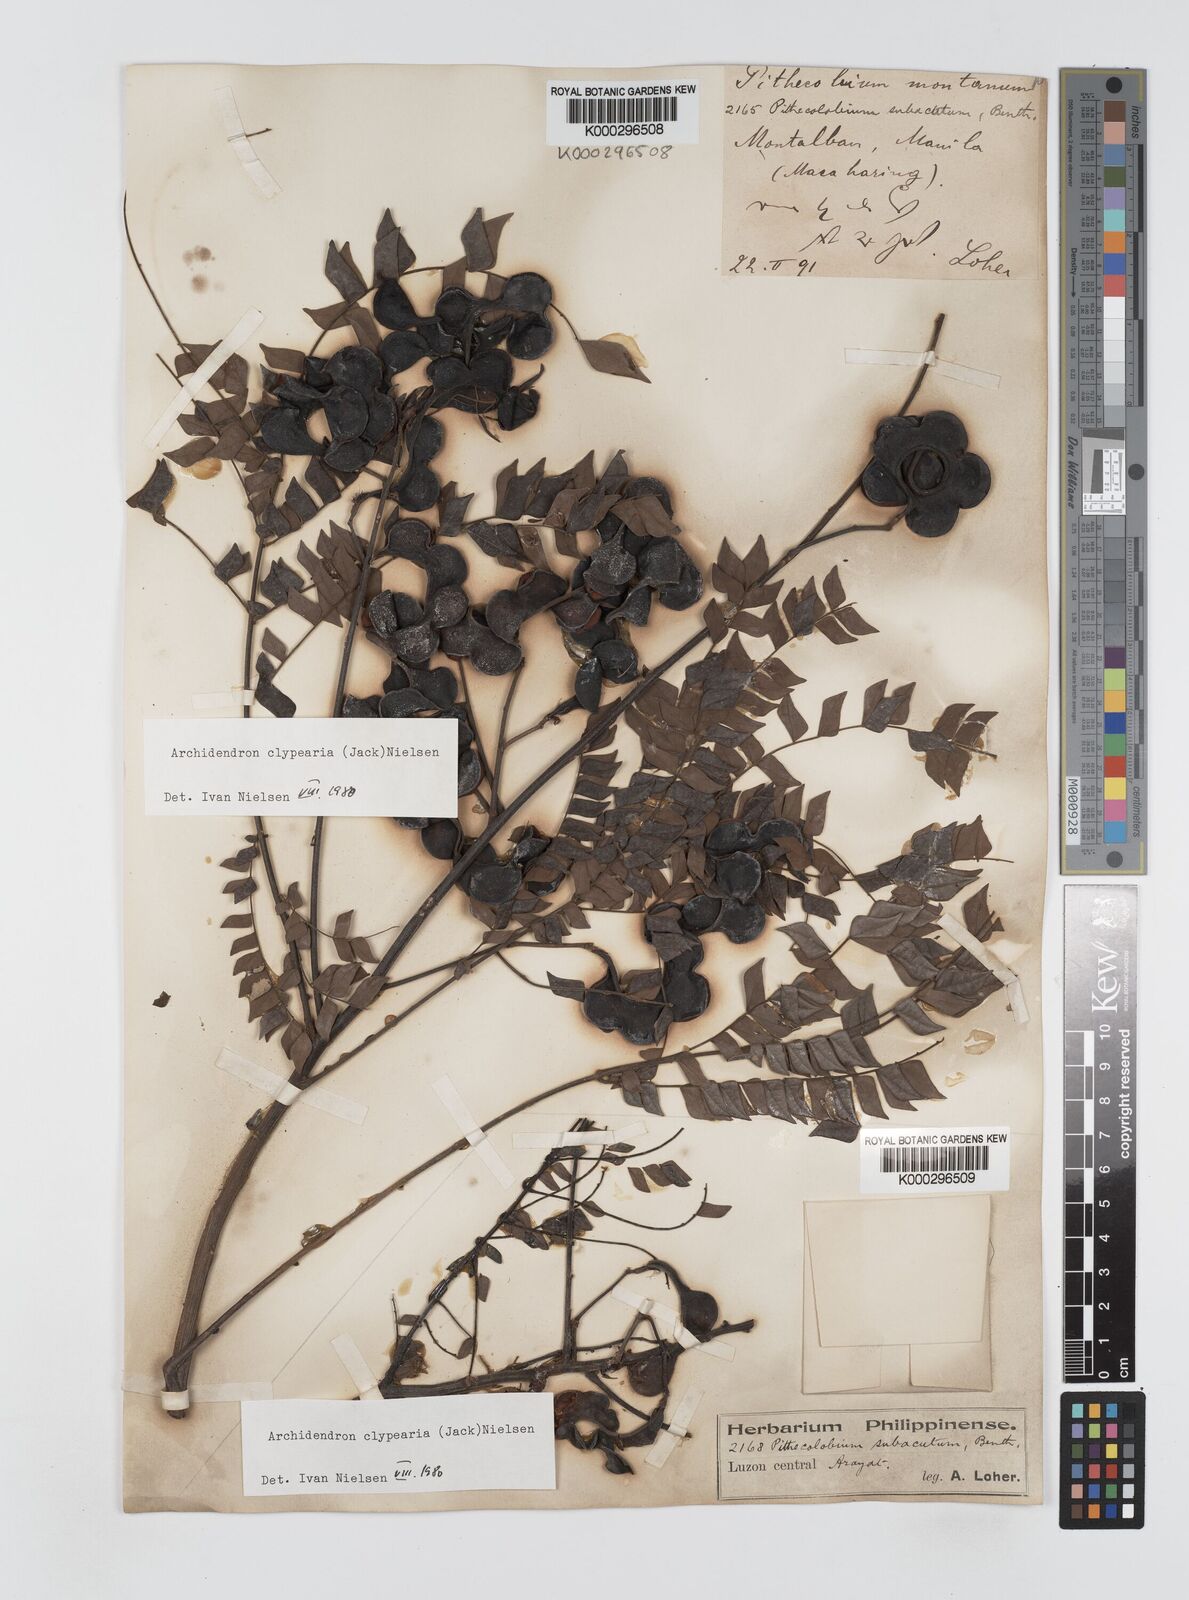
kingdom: Plantae
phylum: Tracheophyta
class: Magnoliopsida
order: Fabales
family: Fabaceae
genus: Archidendron
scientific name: Archidendron clypearia
